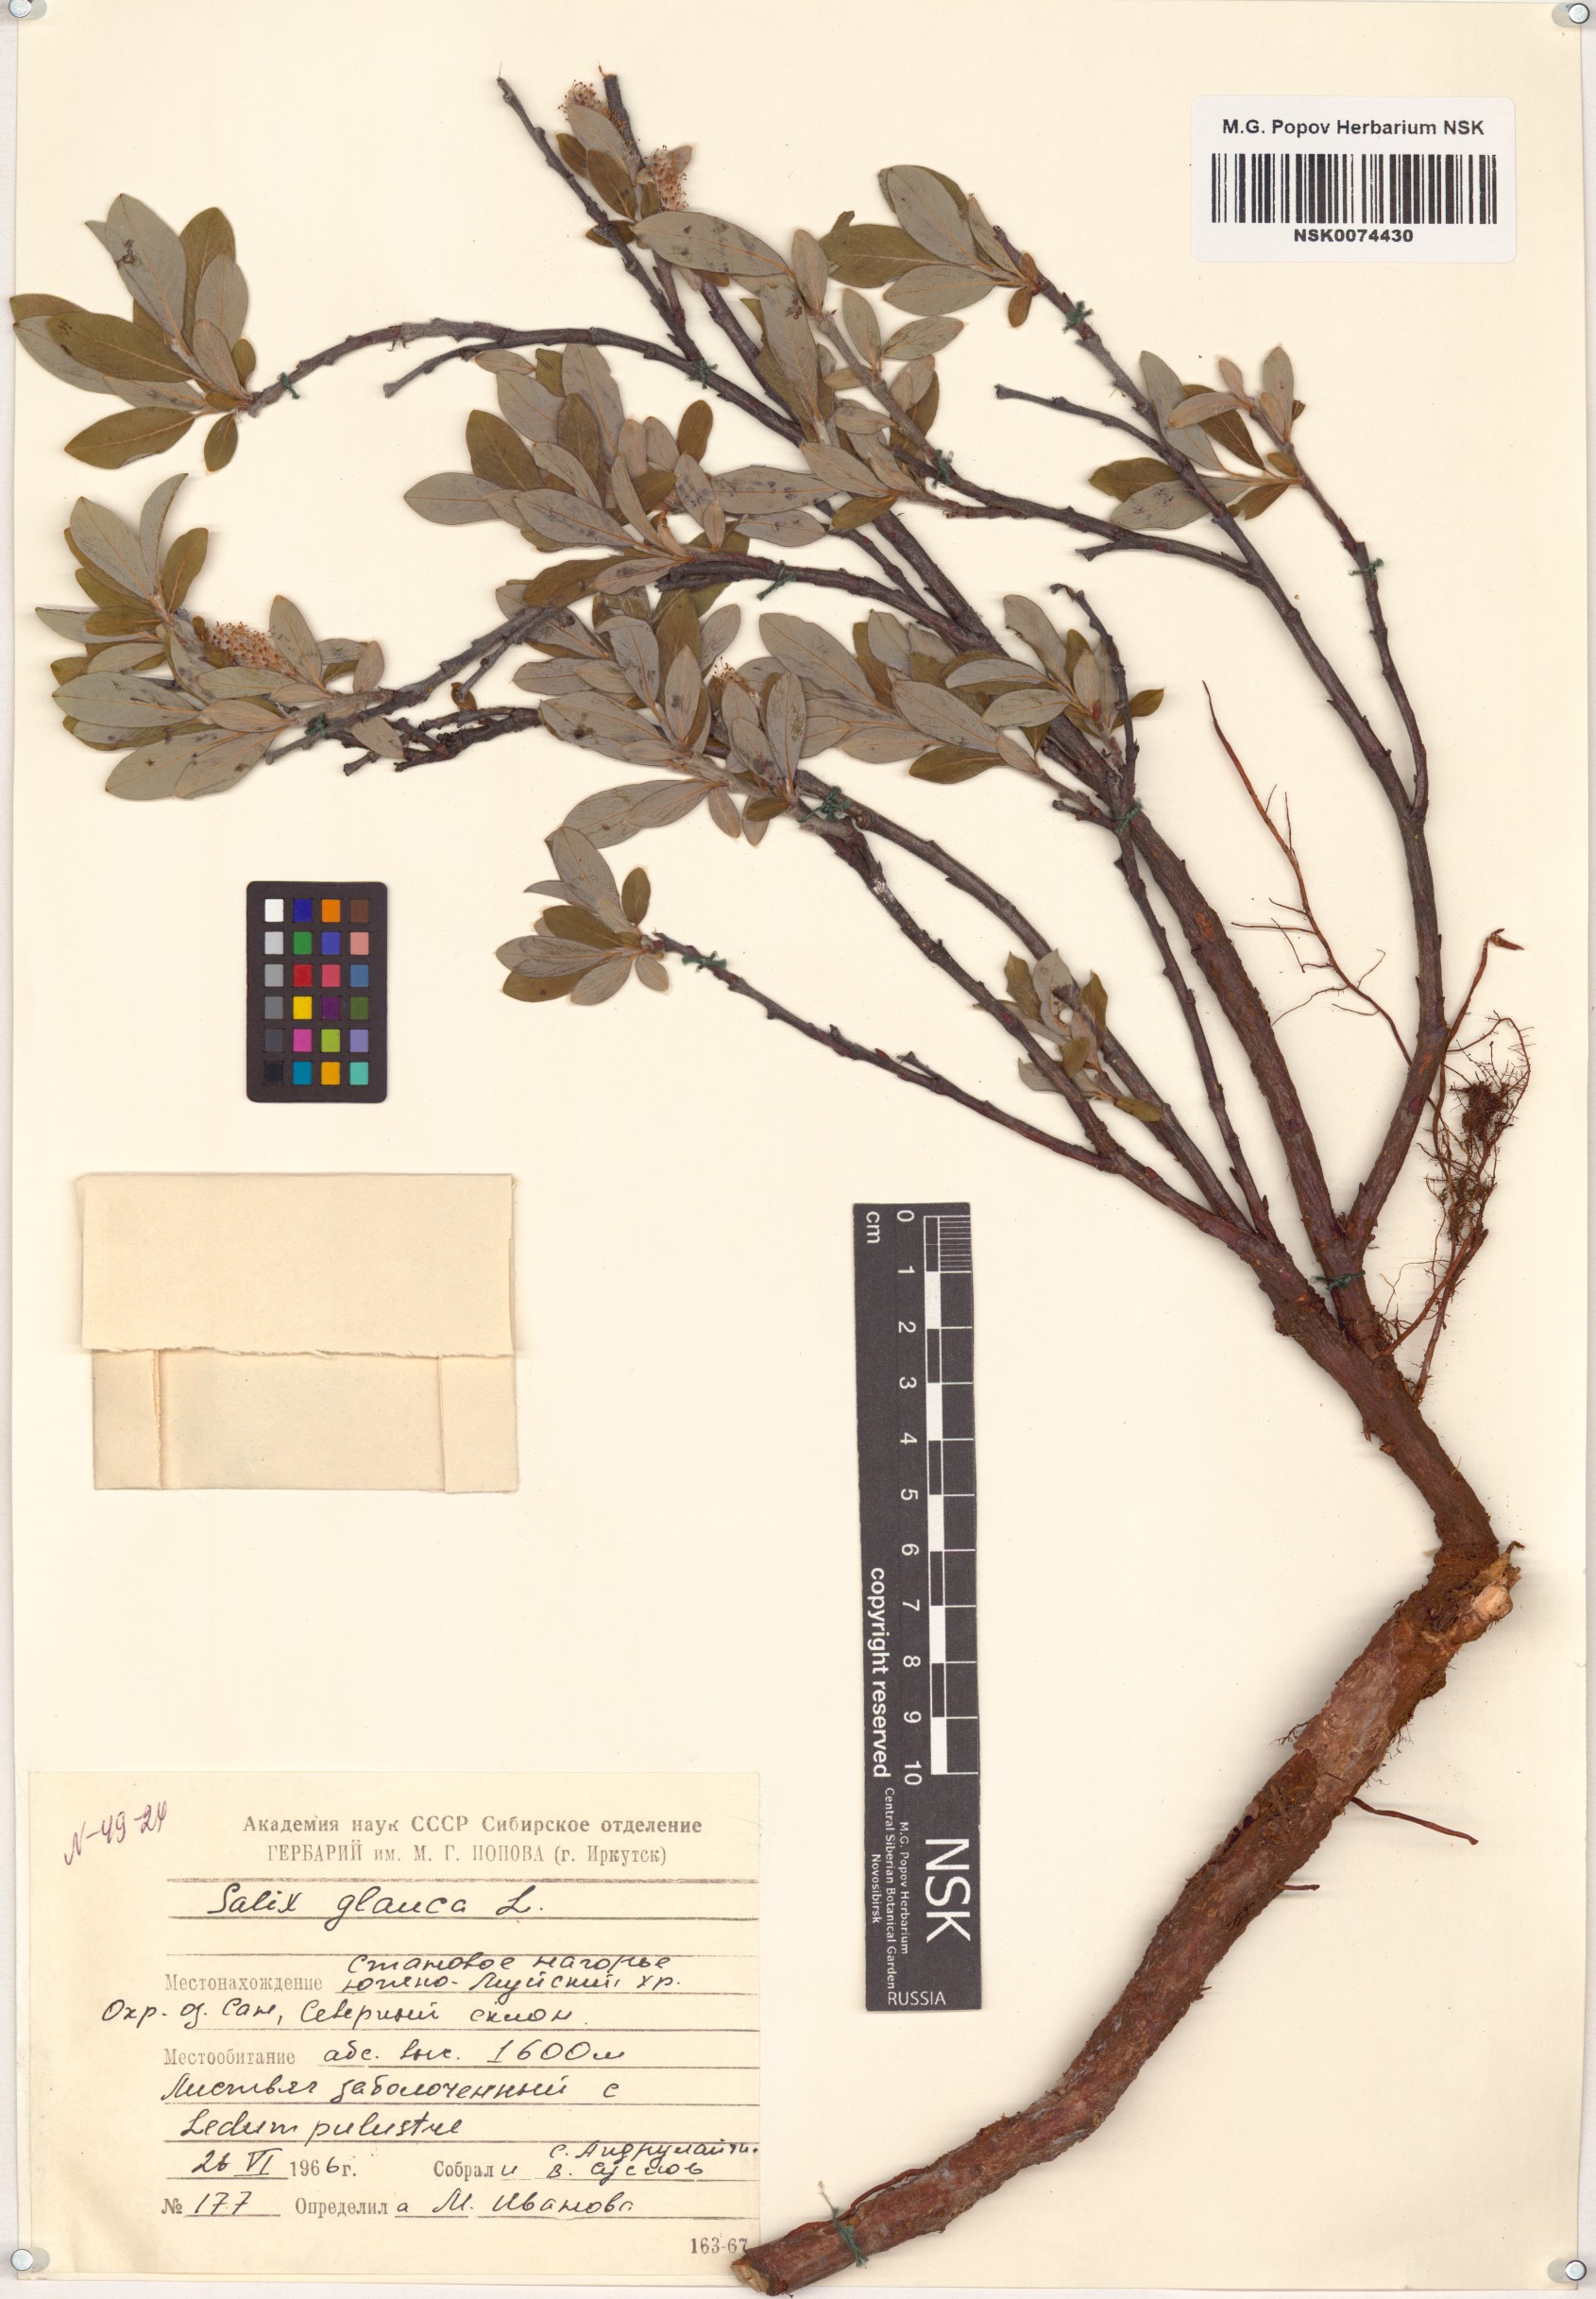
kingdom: Plantae
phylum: Tracheophyta
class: Magnoliopsida
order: Malpighiales
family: Salicaceae
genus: Salix
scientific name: Salix glauca
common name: Glaucous willow
